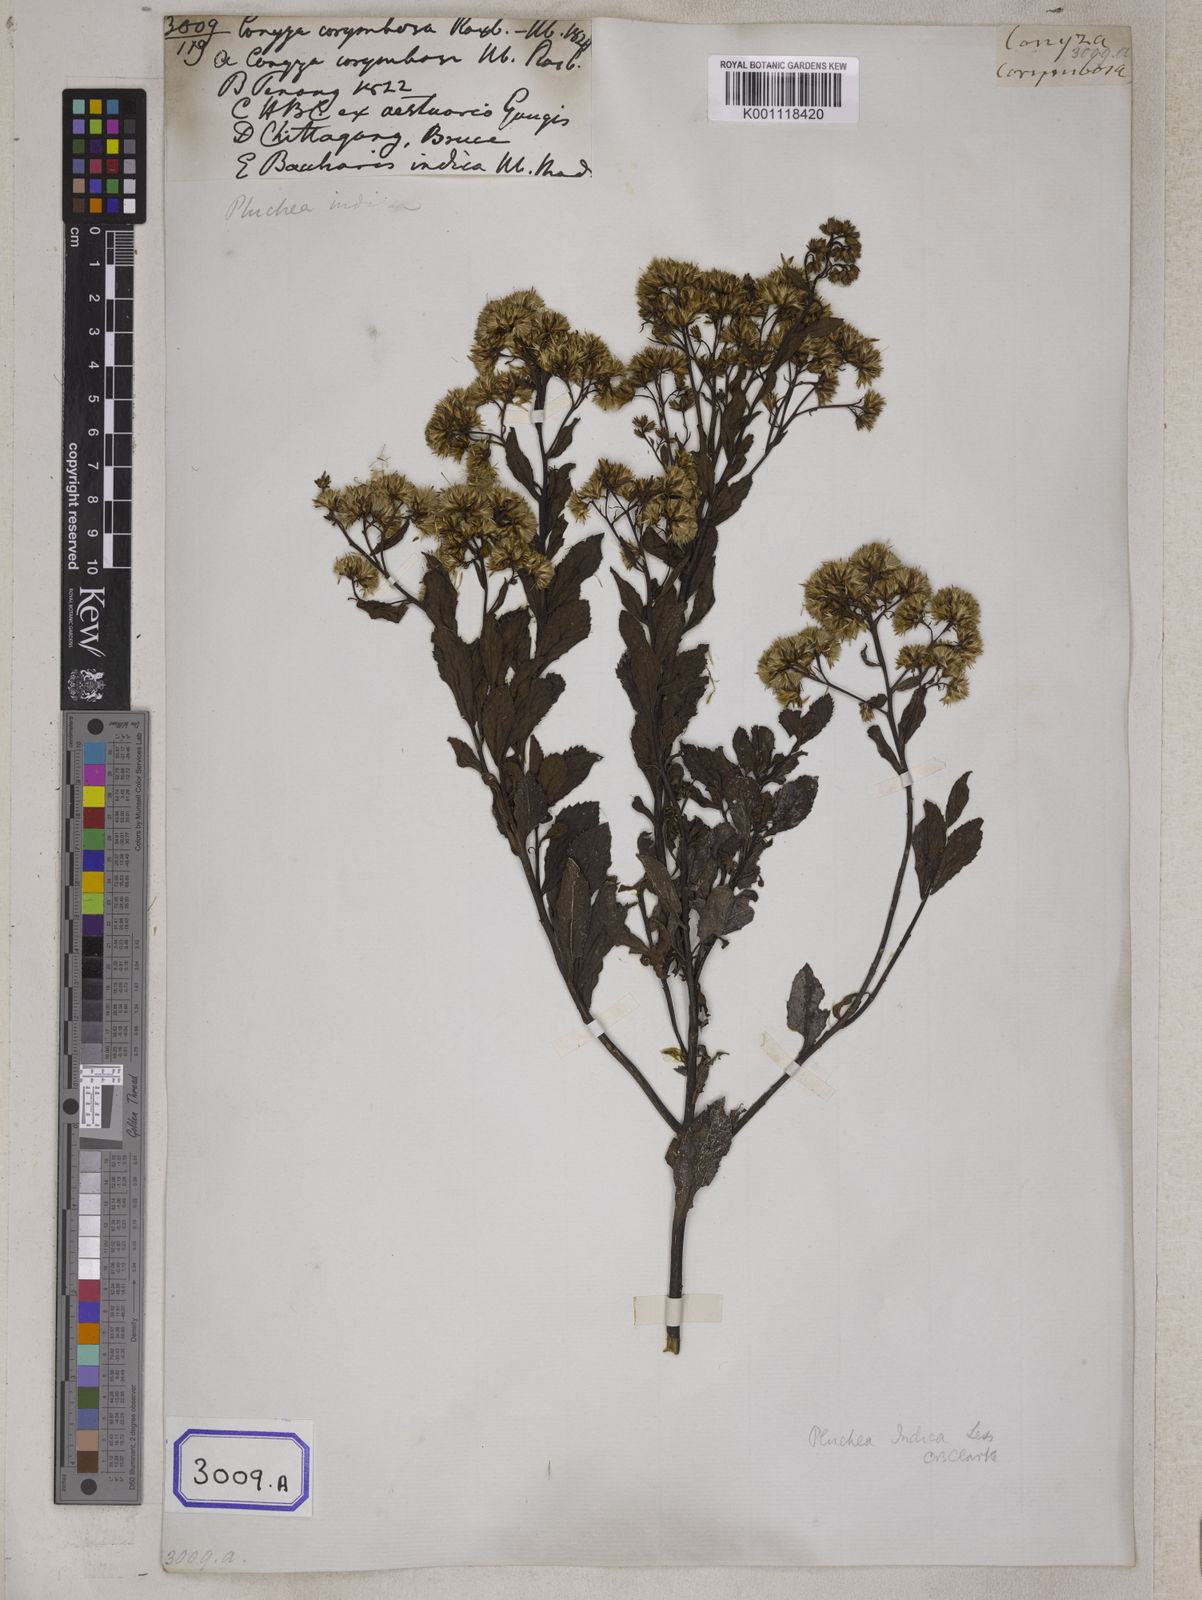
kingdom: Plantae
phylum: Tracheophyta
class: Magnoliopsida
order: Asterales
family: Asteraceae
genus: Pluchea
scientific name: Pluchea indica
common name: Indian fleabane
